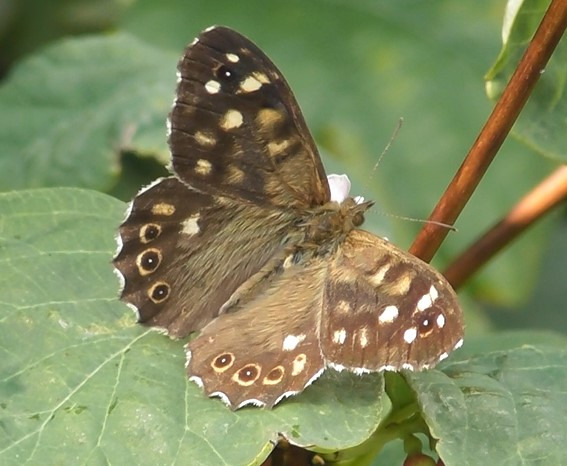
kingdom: Animalia
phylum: Arthropoda
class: Insecta
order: Lepidoptera
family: Nymphalidae
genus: Pararge
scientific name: Pararge aegeria
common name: Skovrandøje
